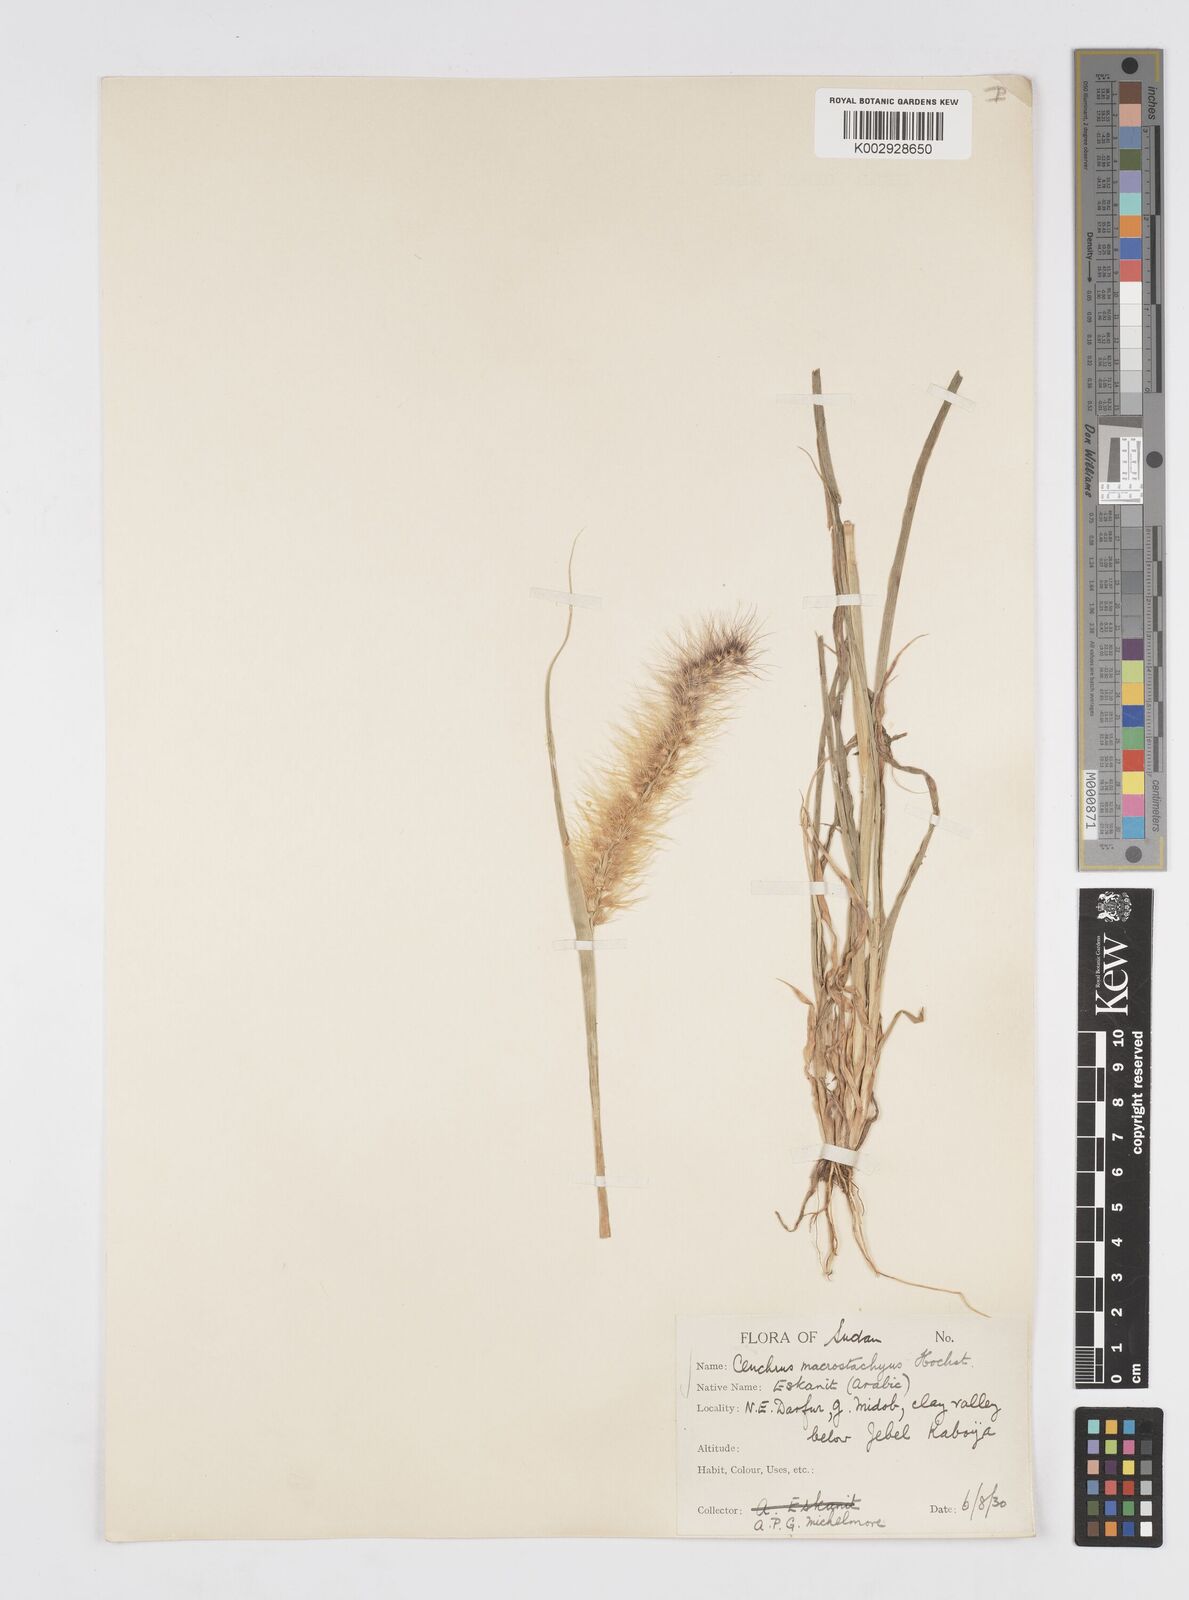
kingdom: Plantae
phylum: Tracheophyta
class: Liliopsida
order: Poales
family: Poaceae
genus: Cenchrus
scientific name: Cenchrus prieurii
